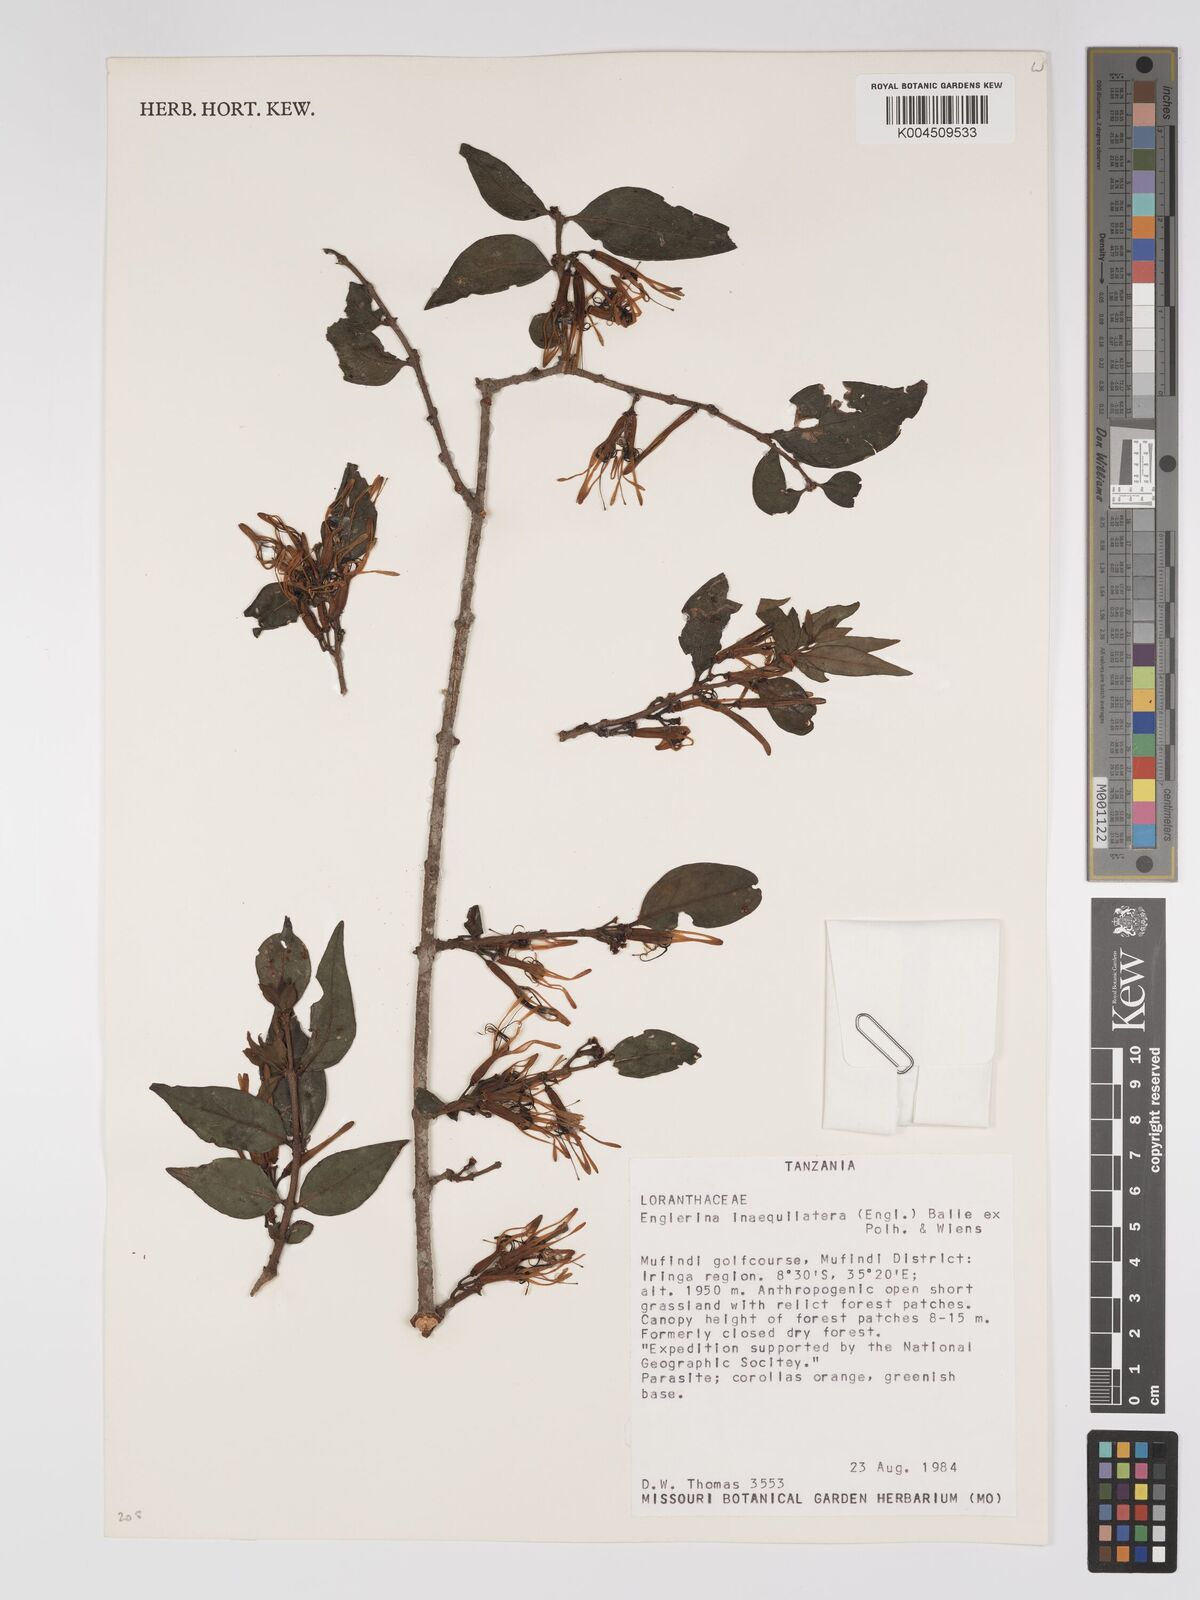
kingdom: Plantae
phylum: Tracheophyta
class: Magnoliopsida
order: Santalales
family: Loranthaceae
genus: Englerina
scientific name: Englerina inaequilatera
